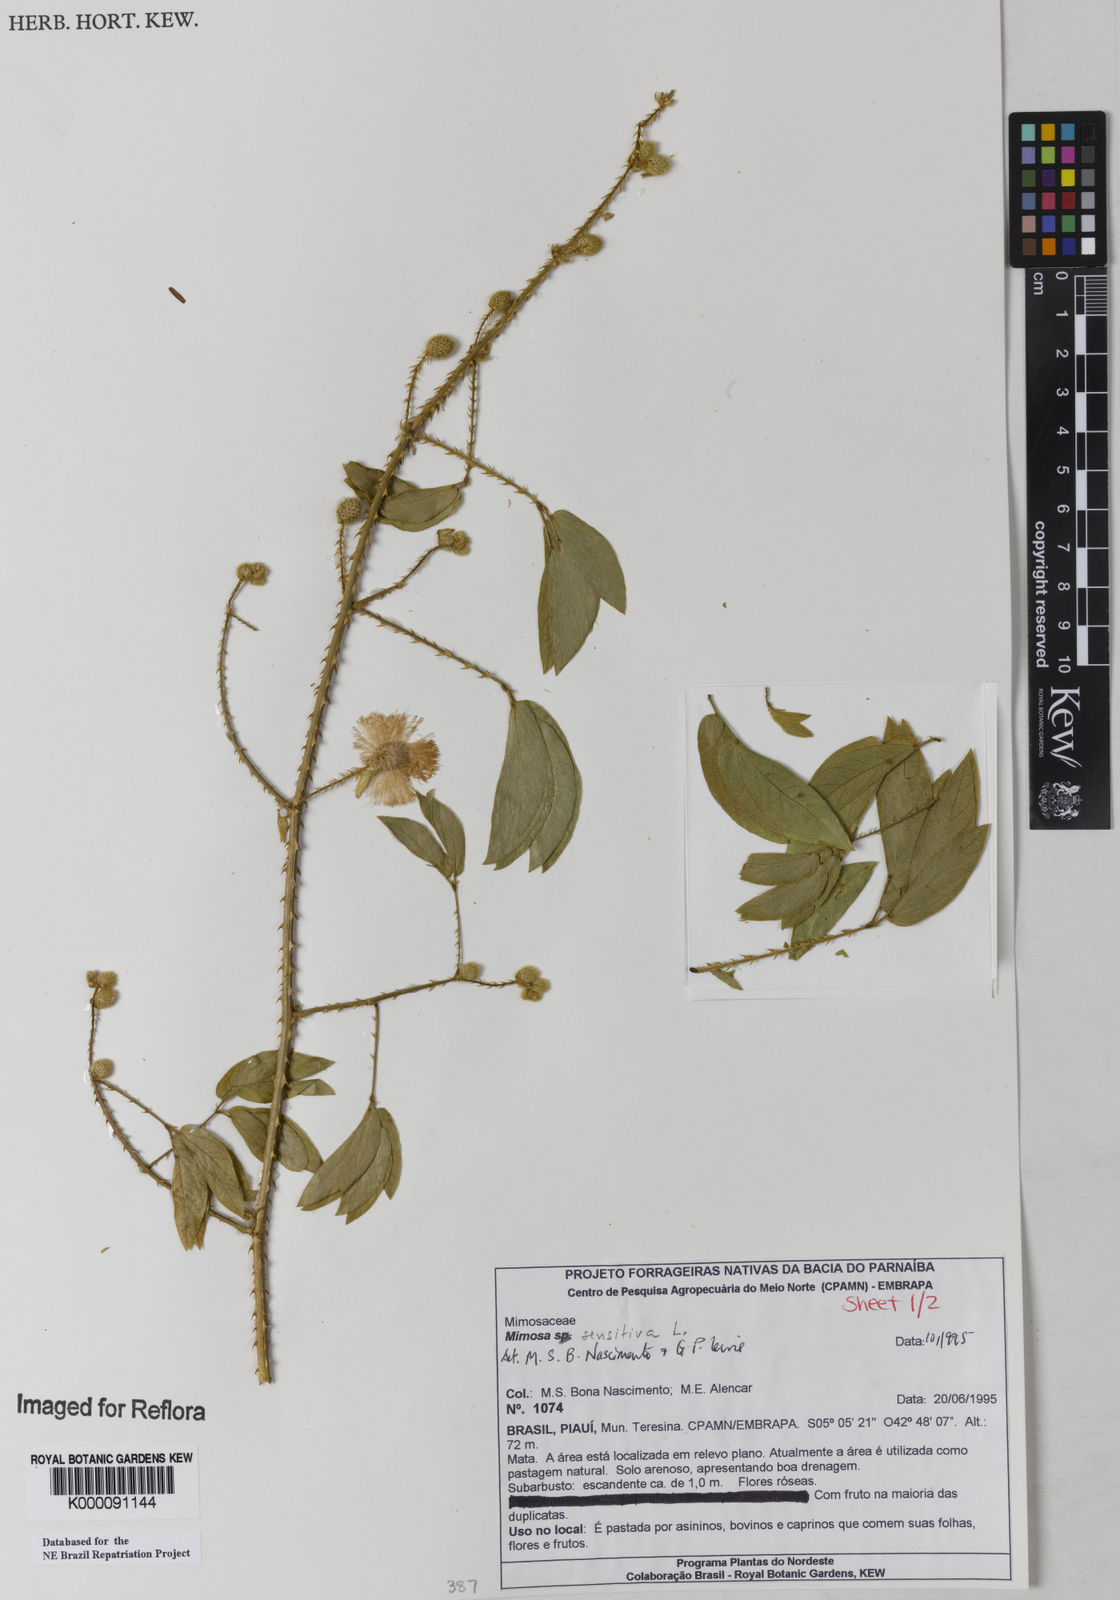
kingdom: Plantae
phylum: Tracheophyta
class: Magnoliopsida
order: Fabales
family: Fabaceae
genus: Mimosa
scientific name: Mimosa sensitiva
